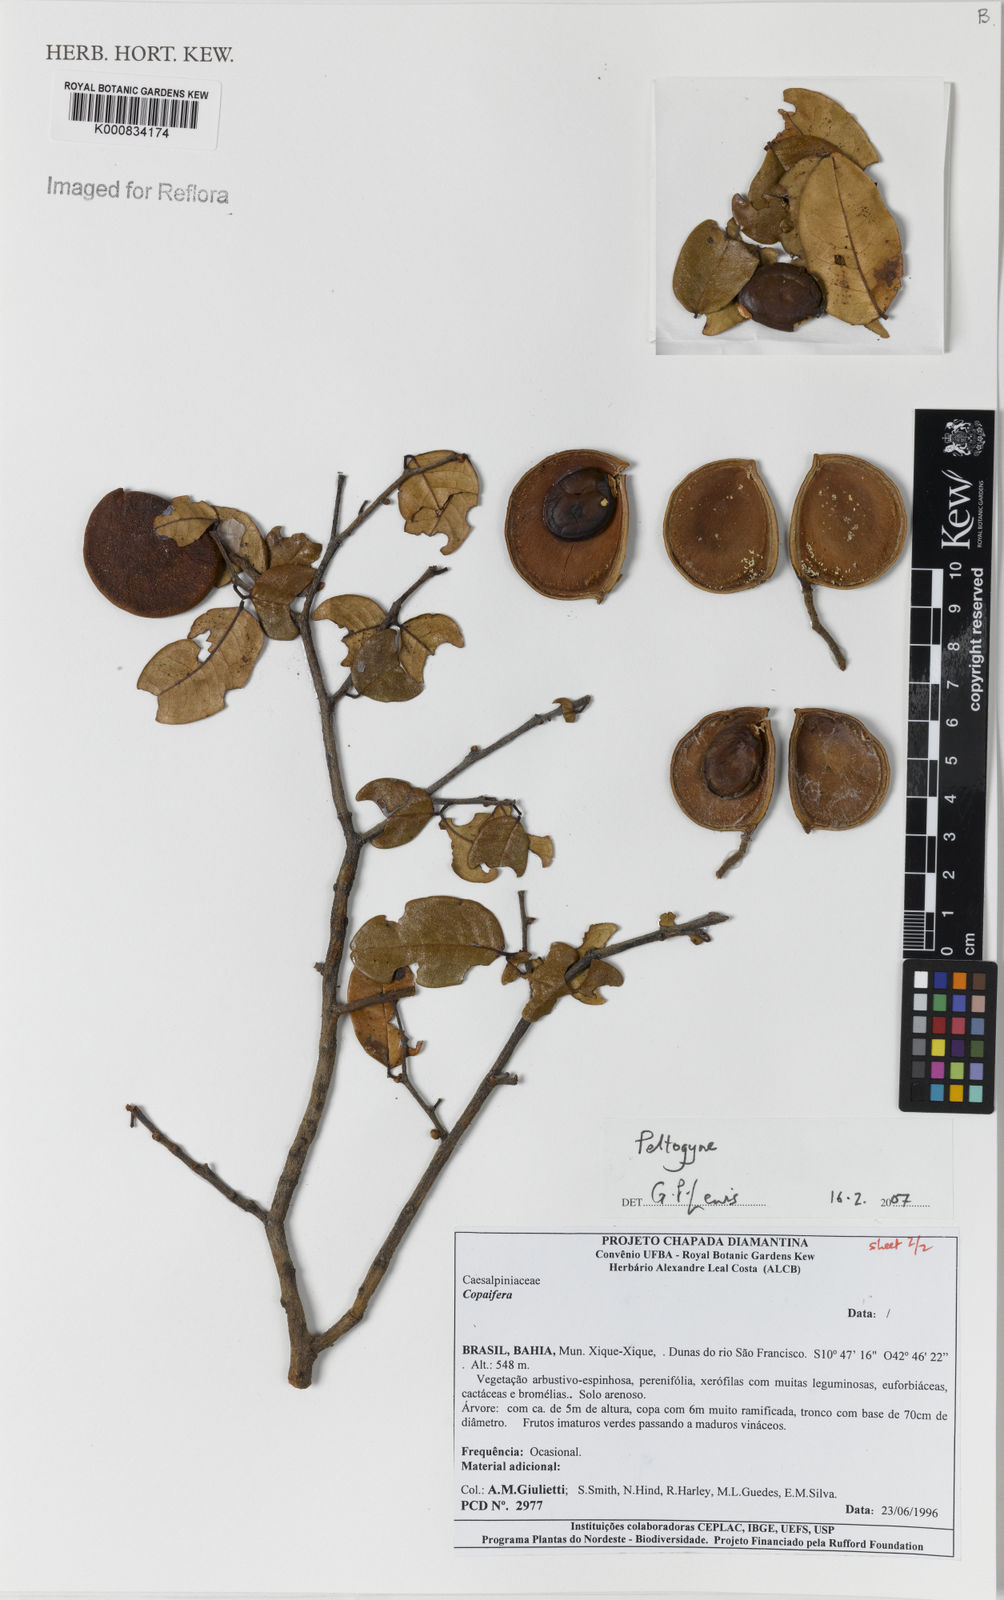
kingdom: Plantae
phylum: Tracheophyta
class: Magnoliopsida
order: Fabales
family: Fabaceae
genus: Peltogyne
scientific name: Peltogyne
